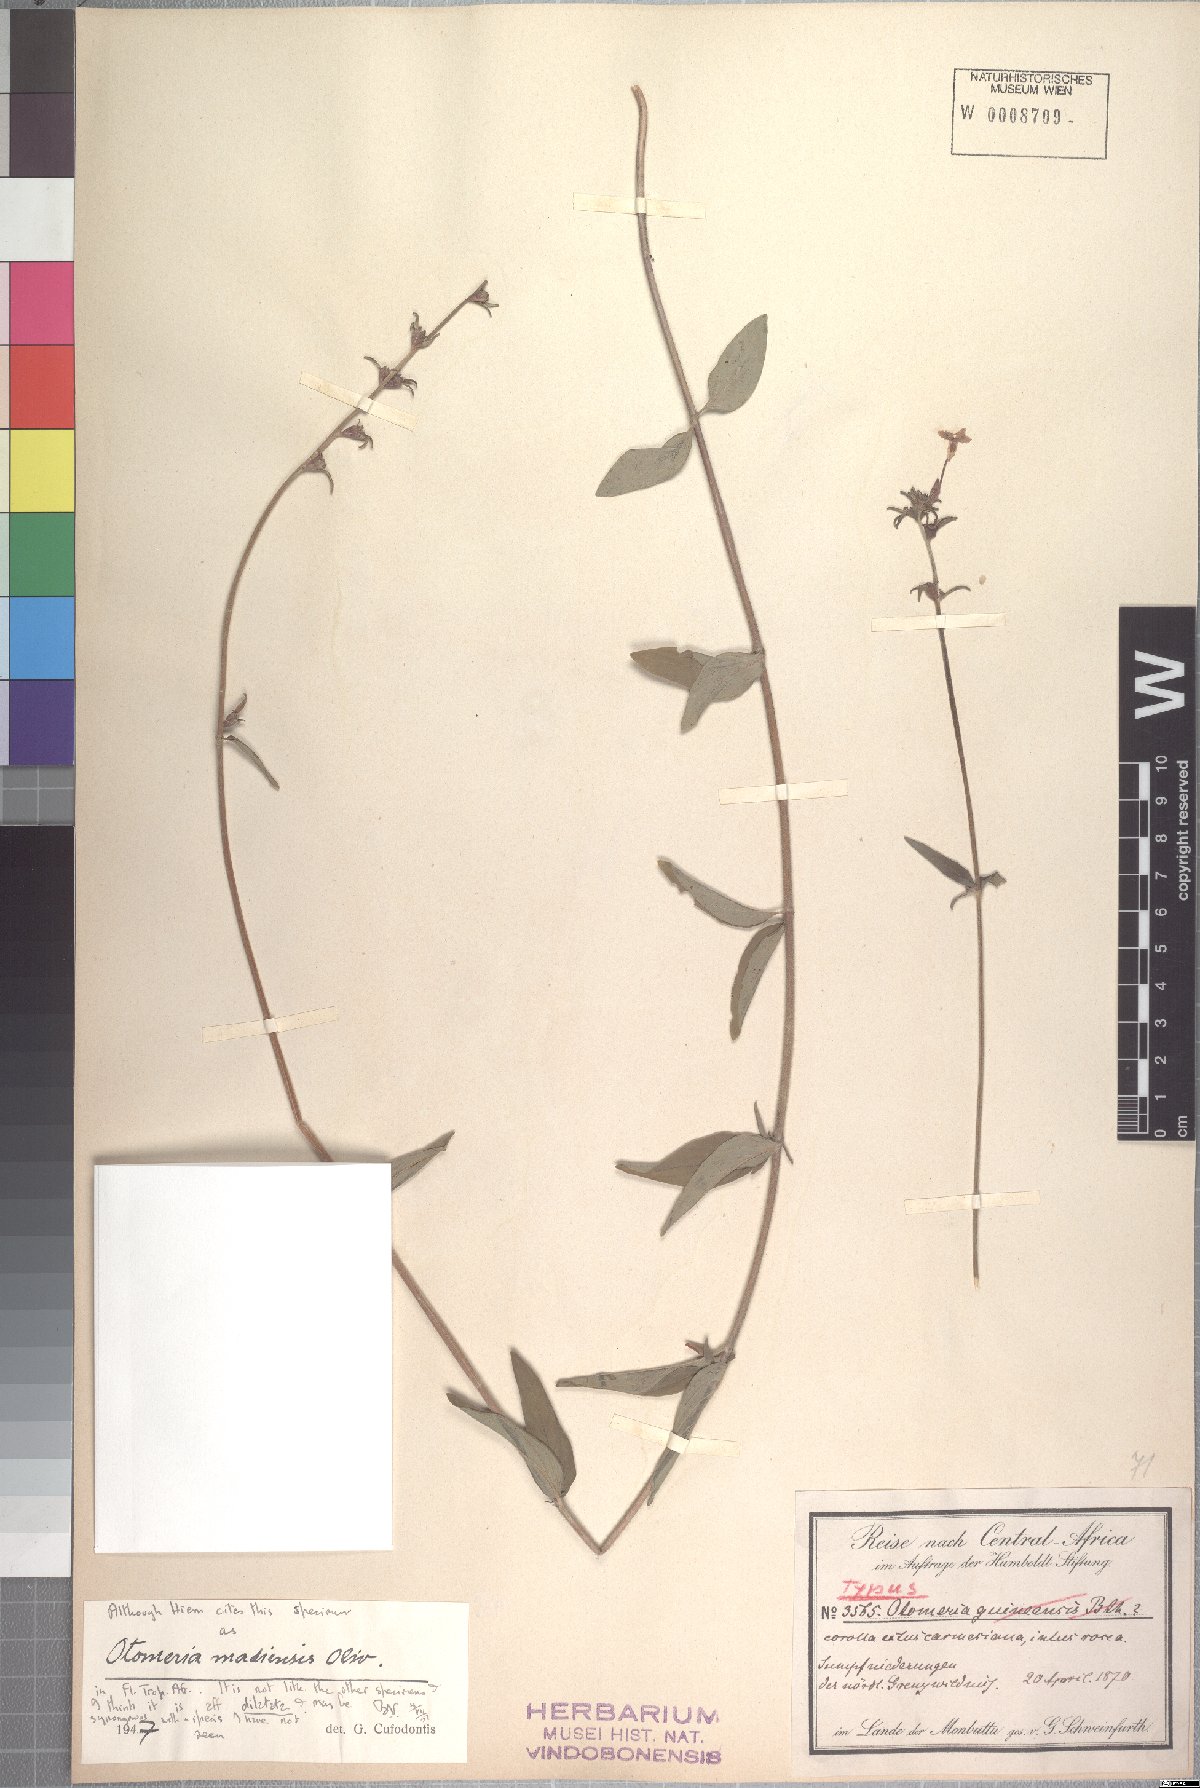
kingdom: Plantae
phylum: Tracheophyta
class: Magnoliopsida
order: Gentianales
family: Rubiaceae
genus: Otomeria
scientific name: Otomeria madiensis
